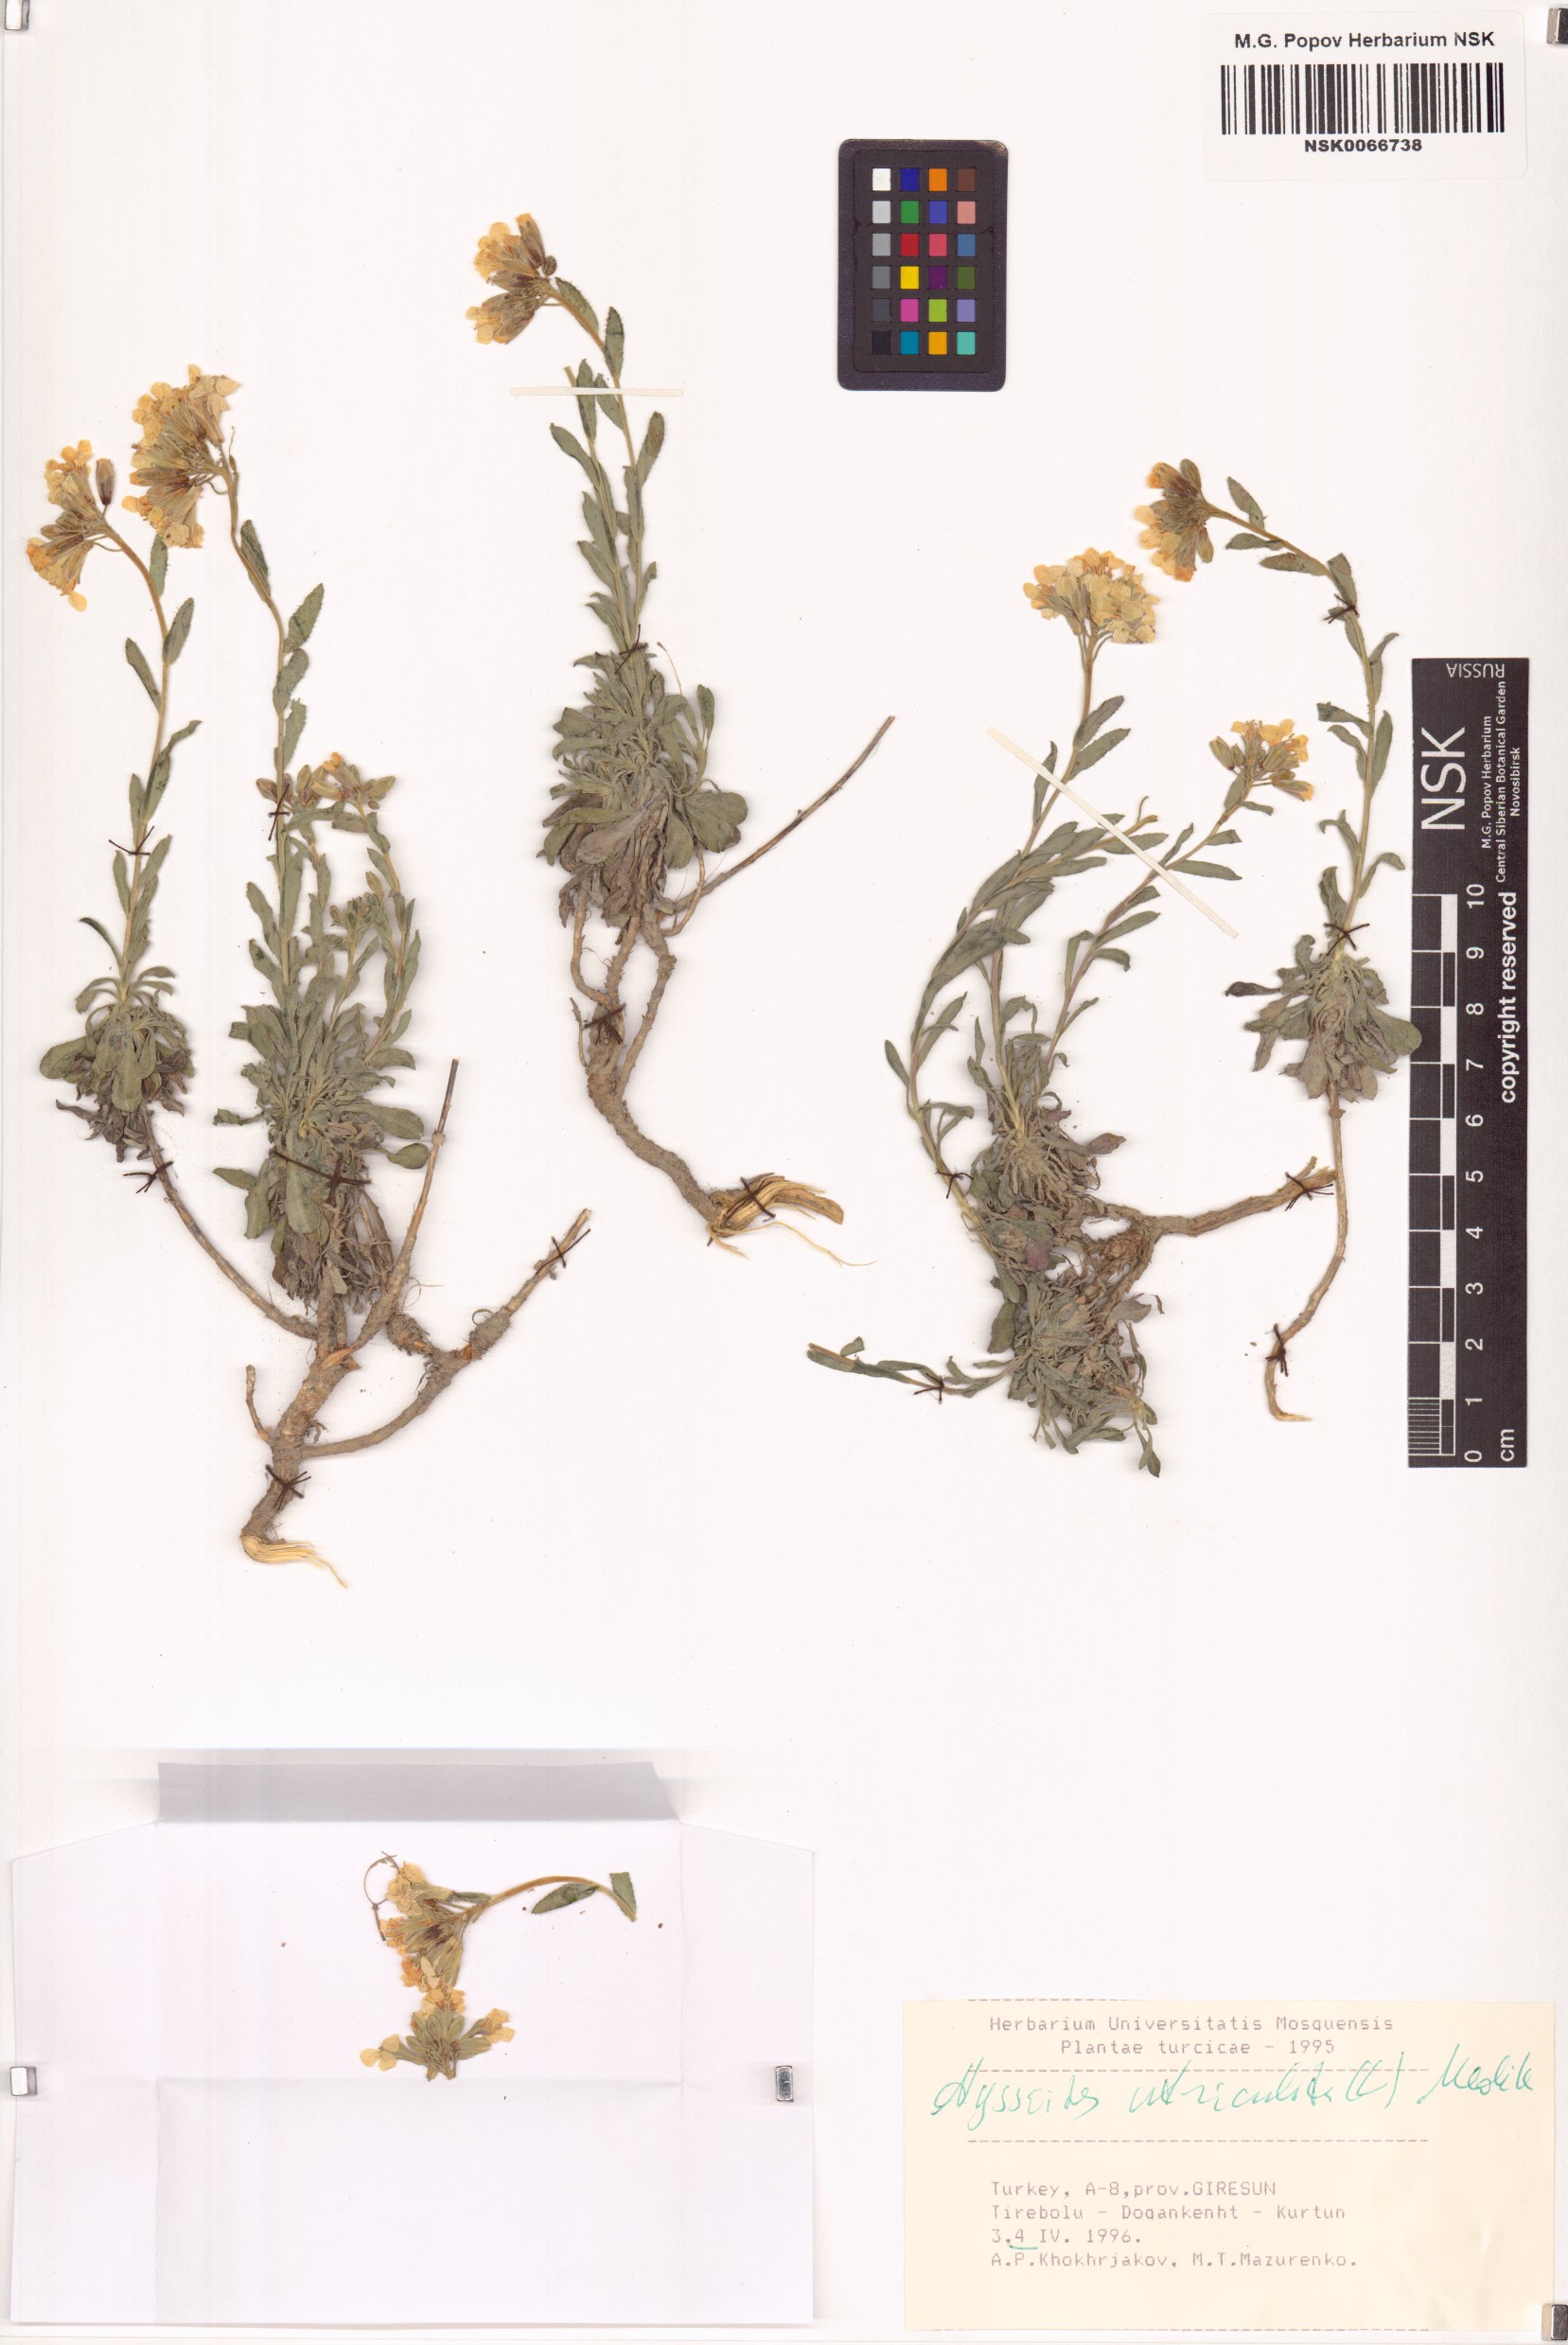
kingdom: Plantae
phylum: Tracheophyta
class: Magnoliopsida
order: Brassicales
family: Brassicaceae
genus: Alyssoides
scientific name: Alyssoides utriculata
